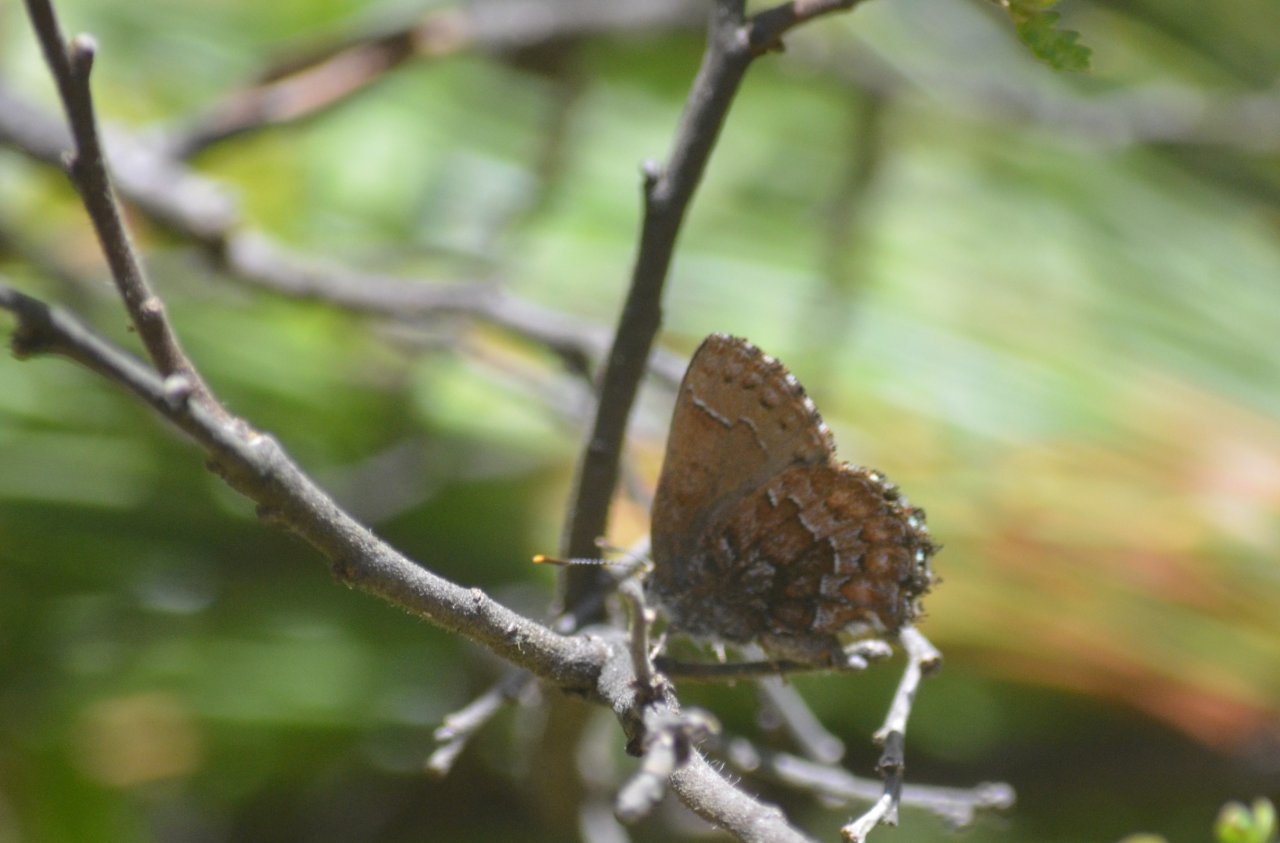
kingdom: Animalia
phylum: Arthropoda
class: Insecta
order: Lepidoptera
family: Lycaenidae
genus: Incisalia
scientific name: Incisalia niphon
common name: Eastern Pine Elfin
